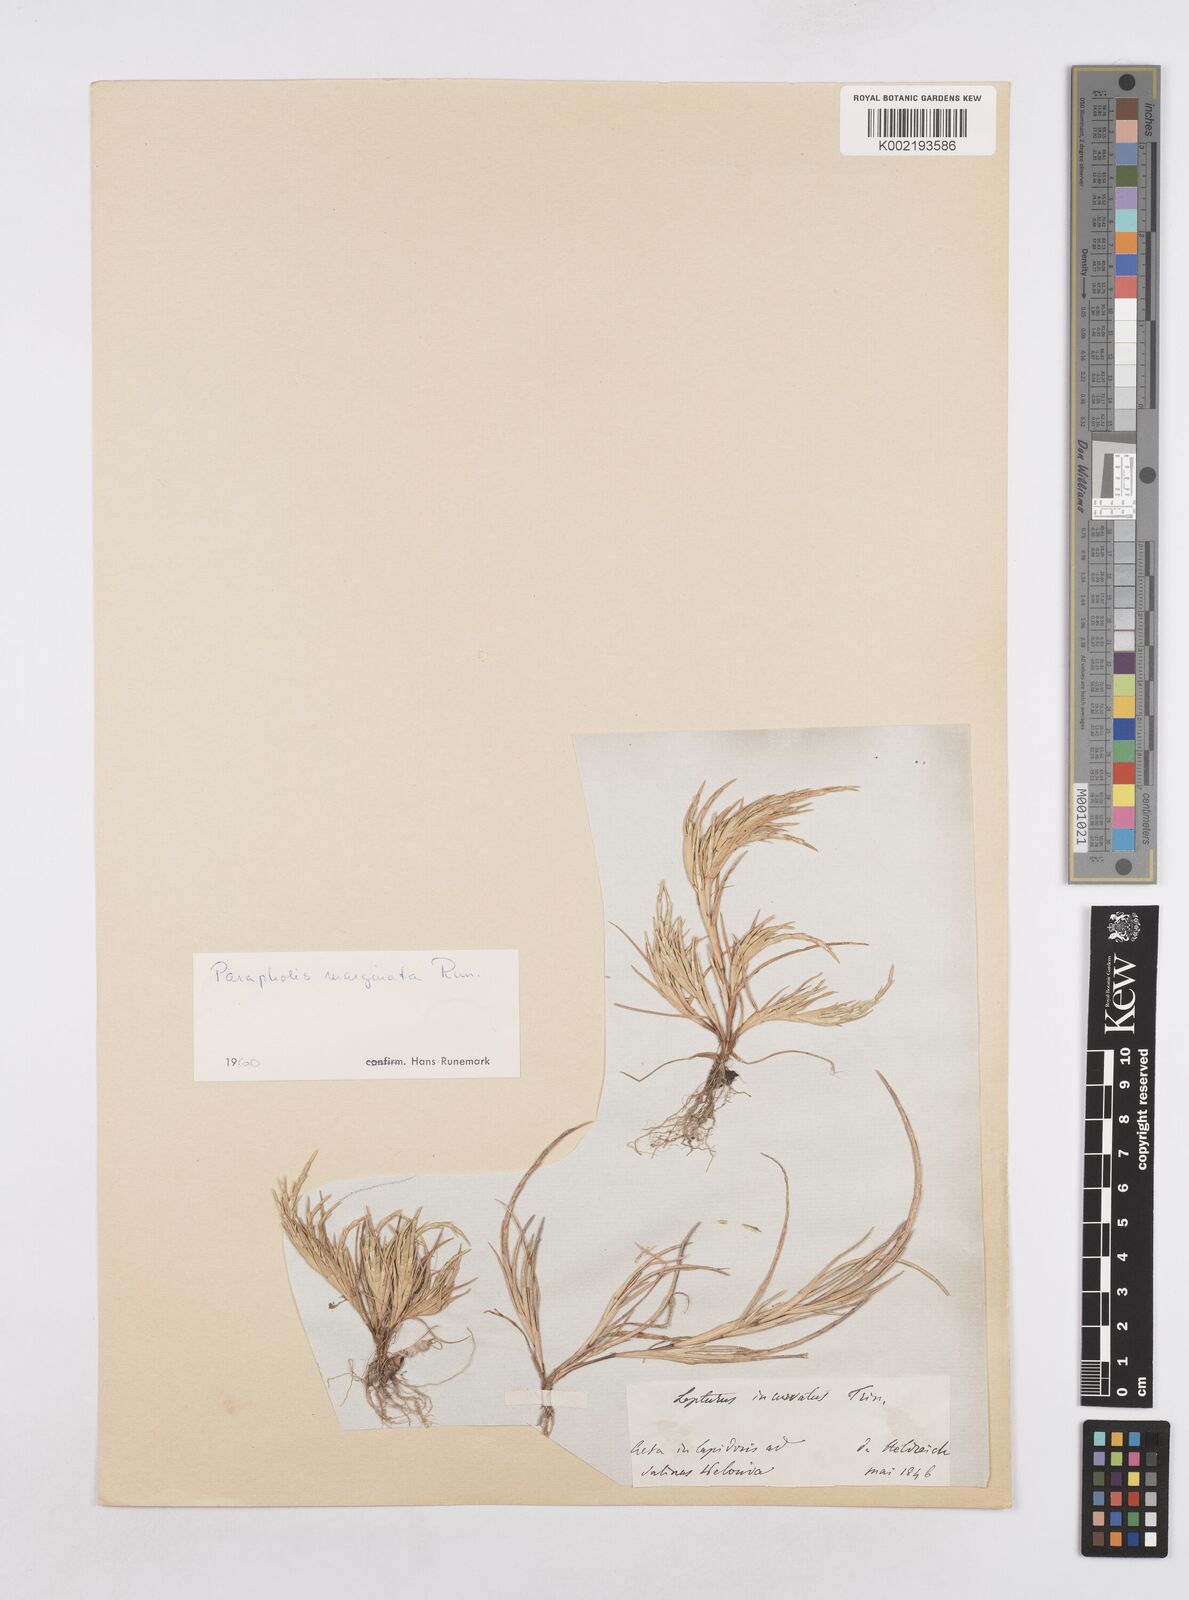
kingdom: Plantae
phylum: Tracheophyta
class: Liliopsida
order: Poales
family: Poaceae
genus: Parapholis
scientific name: Parapholis marginata
